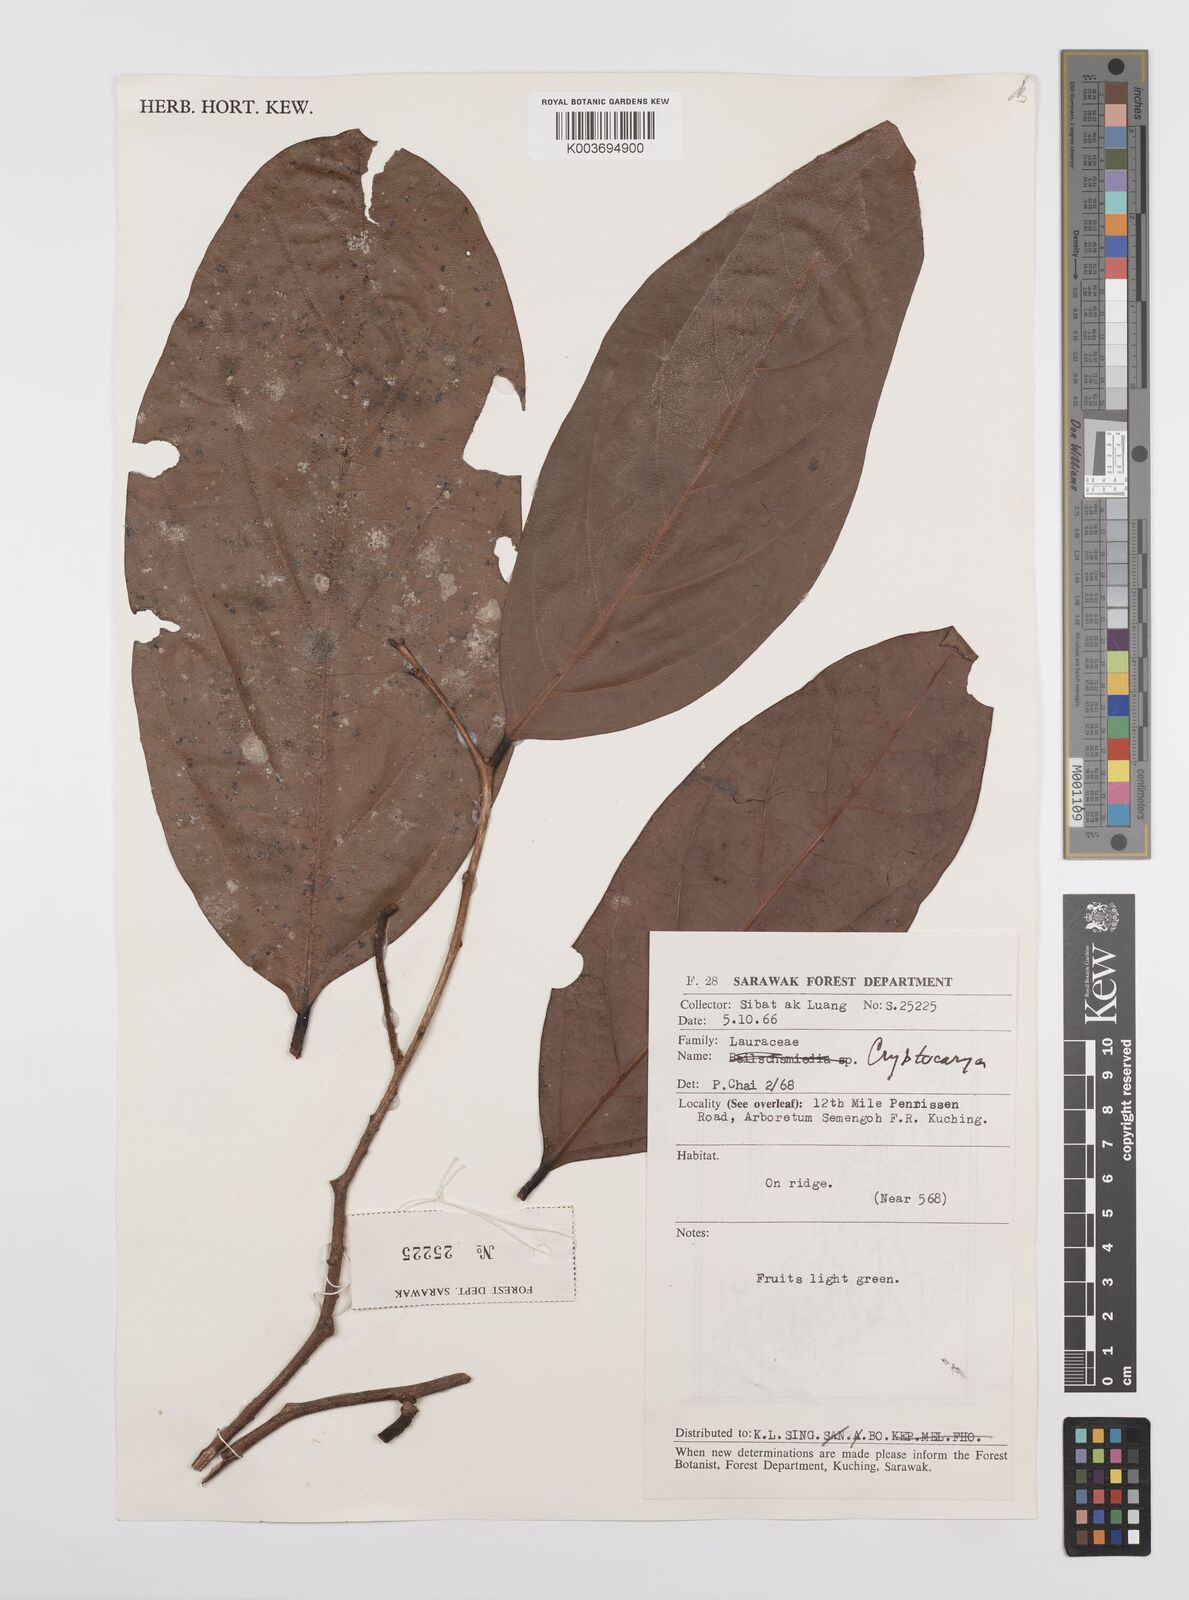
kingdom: Plantae
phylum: Tracheophyta
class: Magnoliopsida
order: Laurales
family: Lauraceae
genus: Cryptocarya
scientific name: Cryptocarya
